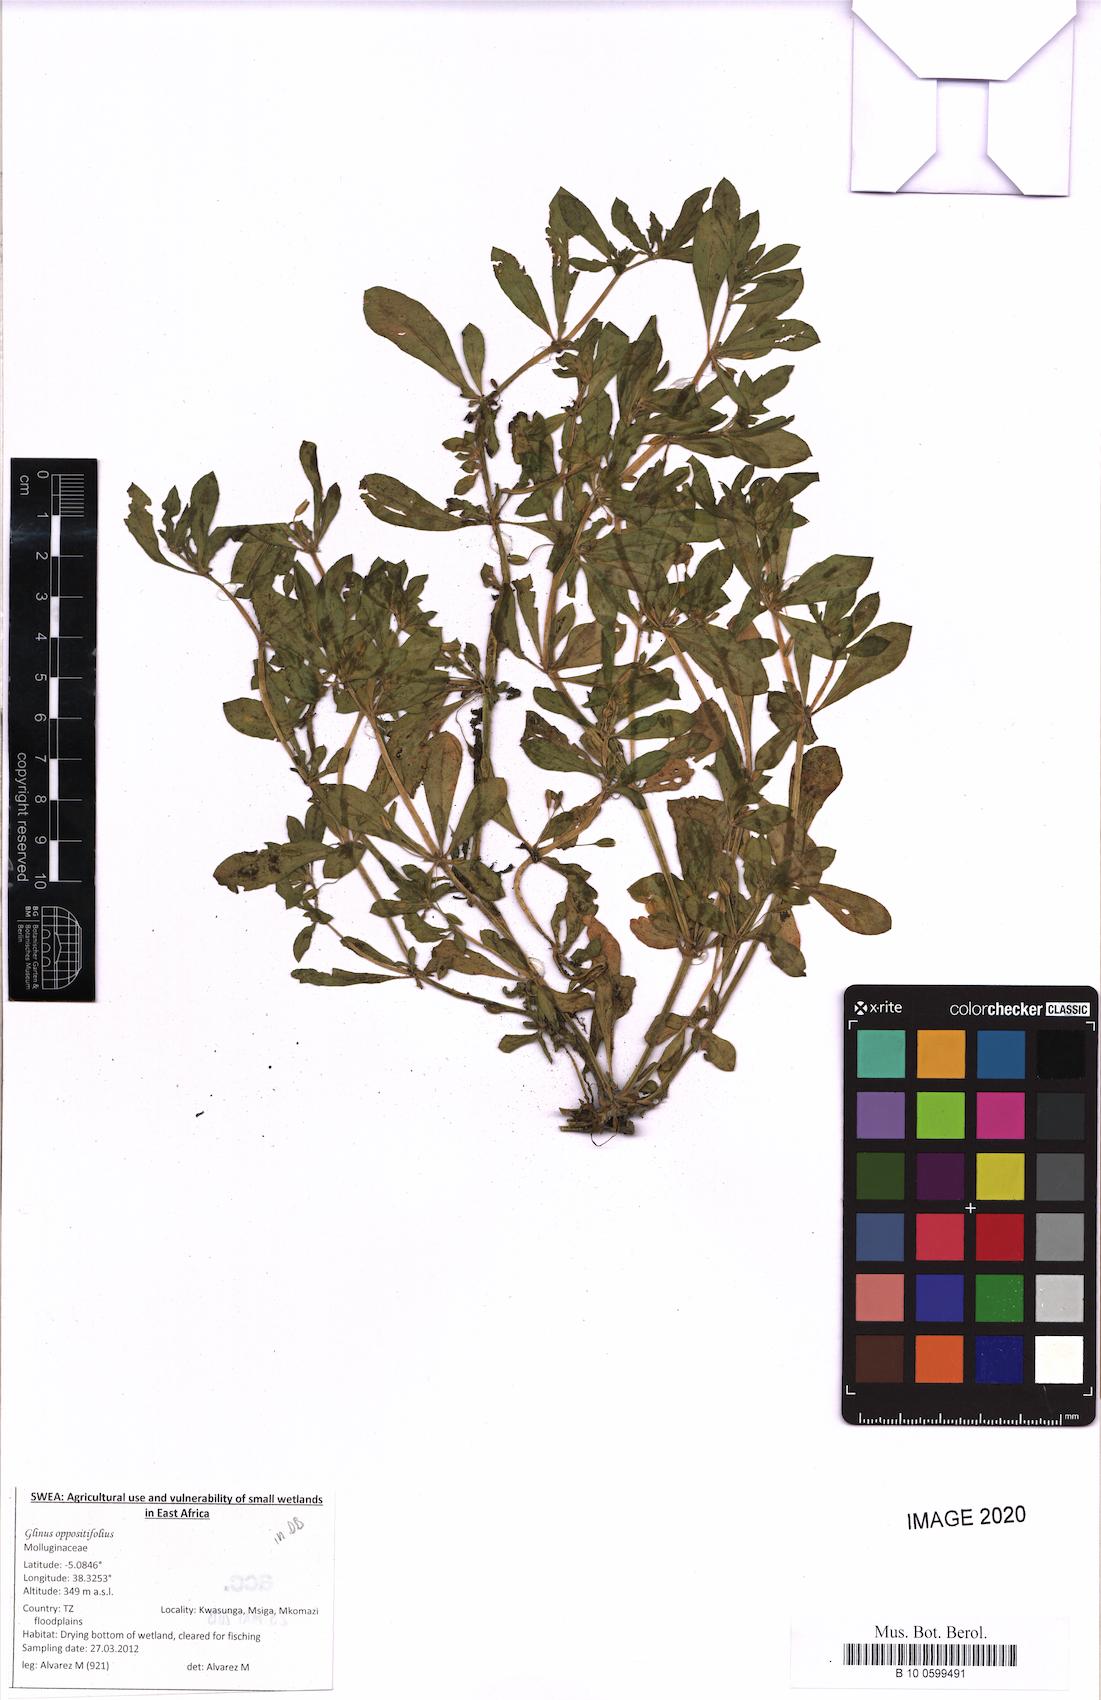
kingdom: Plantae
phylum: Tracheophyta
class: Magnoliopsida
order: Caryophyllales
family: Molluginaceae
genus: Glinus
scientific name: Glinus oppositifolius
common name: Slender carpetweed
